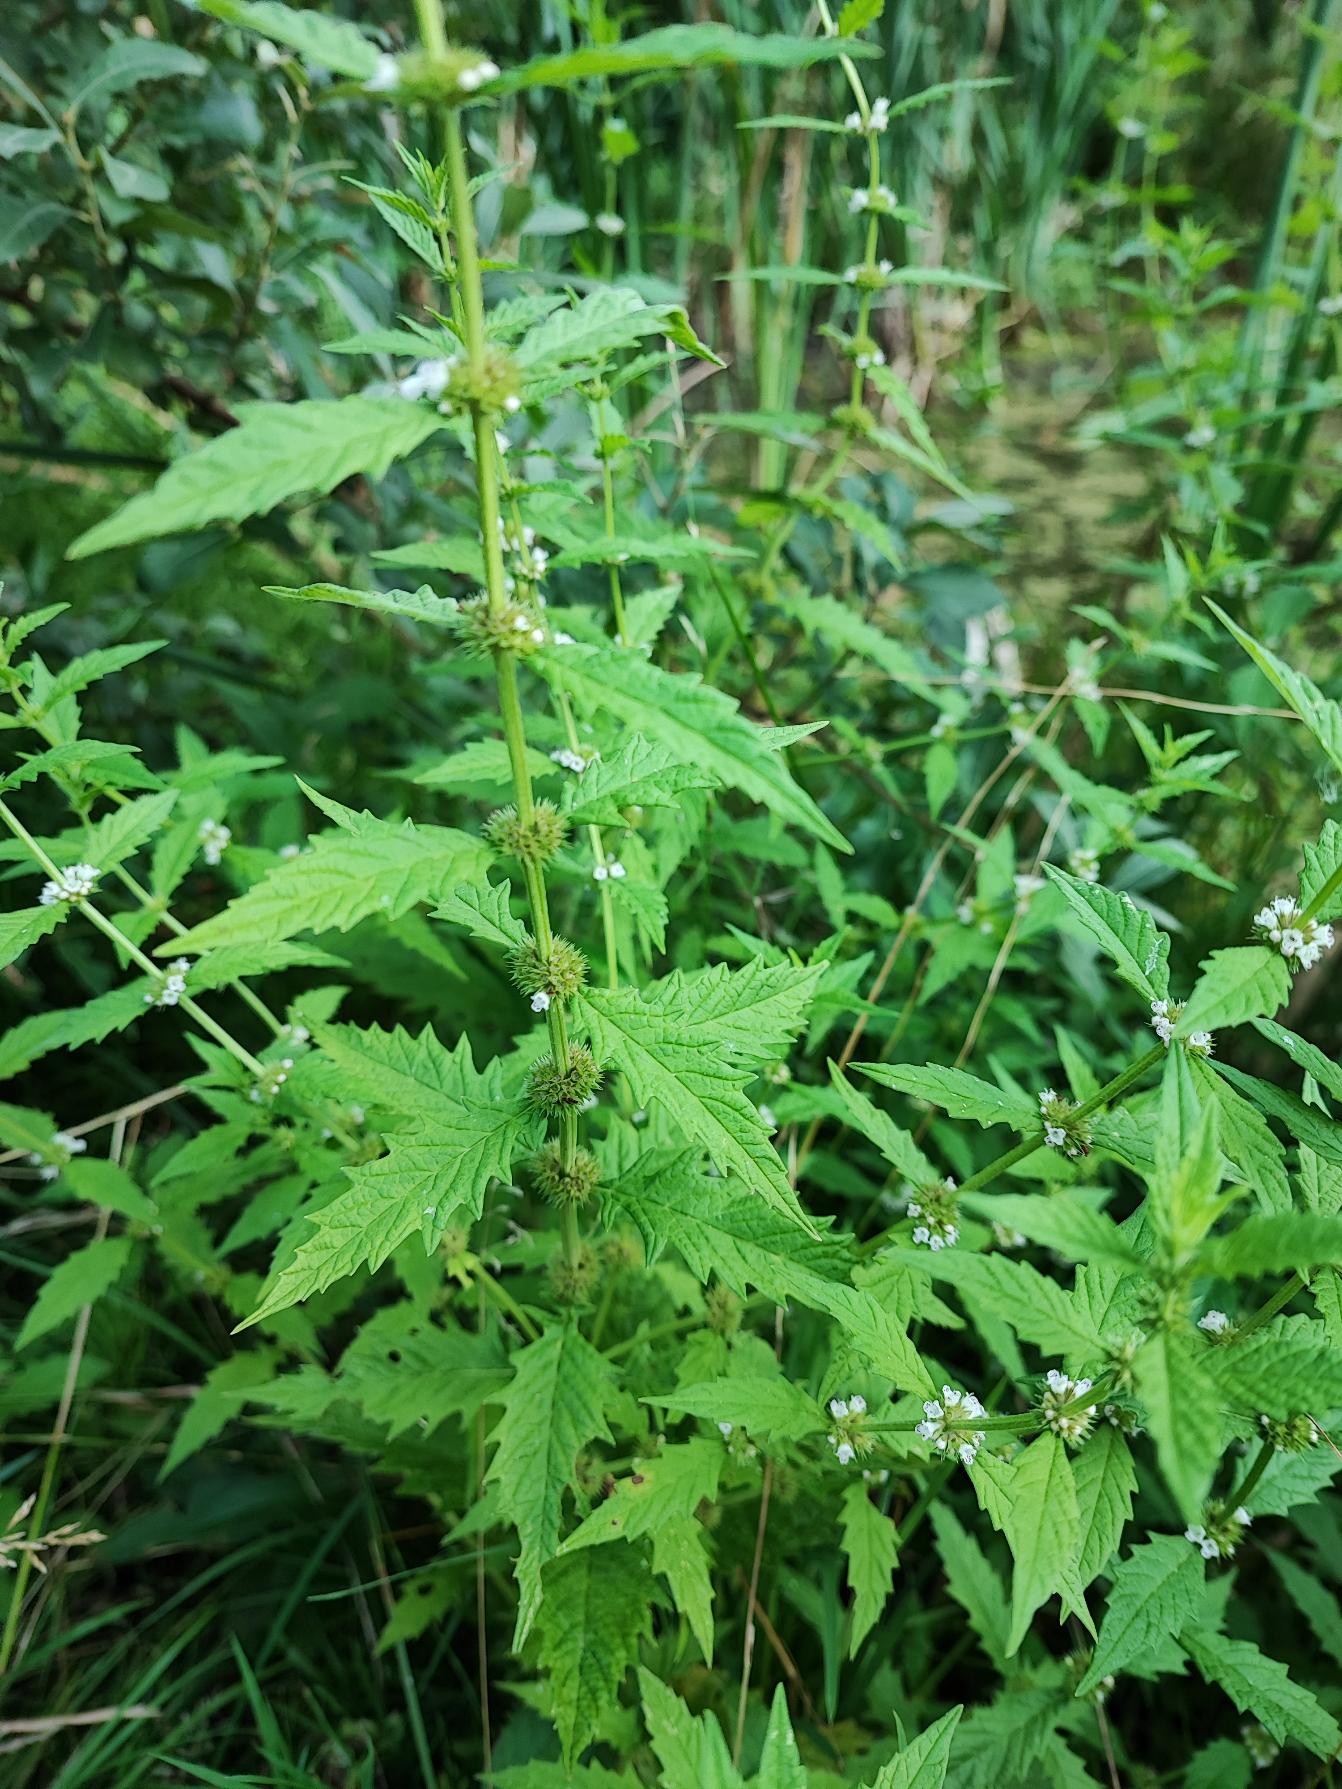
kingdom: Plantae
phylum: Tracheophyta
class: Magnoliopsida
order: Lamiales
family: Lamiaceae
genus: Lycopus
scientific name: Lycopus europaeus
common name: Sværtevæld
